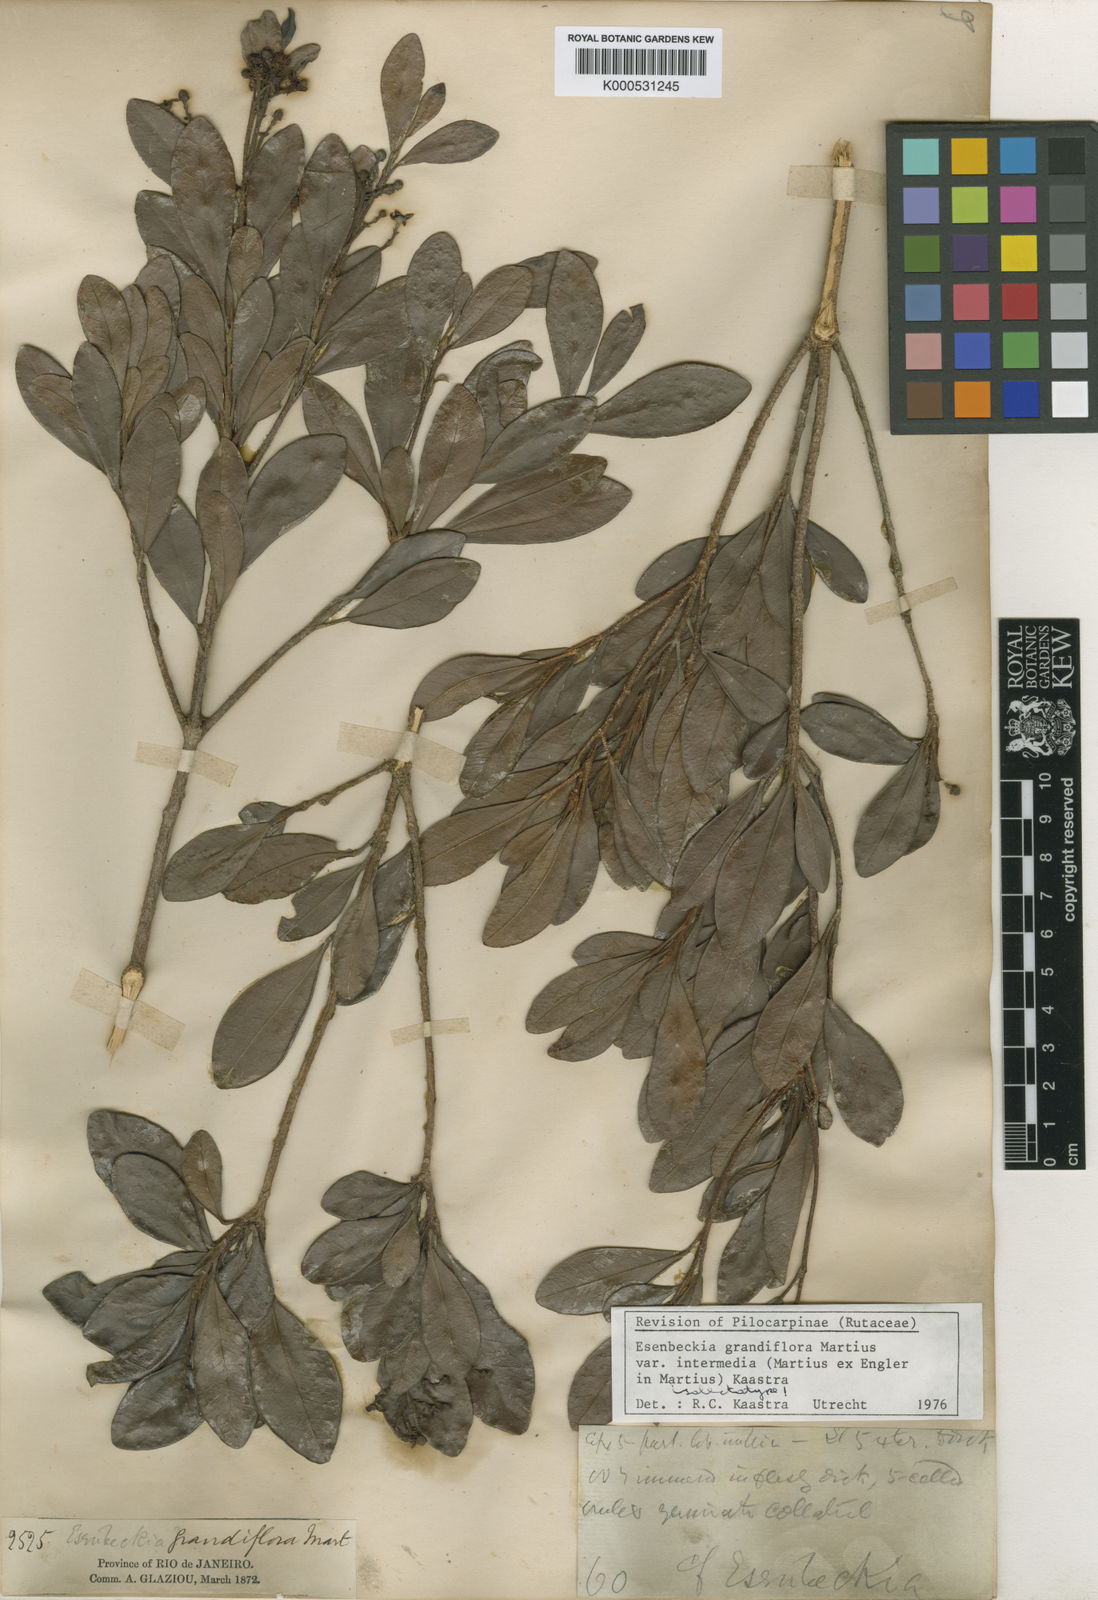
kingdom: Plantae
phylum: Tracheophyta
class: Magnoliopsida
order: Sapindales
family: Rutaceae
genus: Esenbeckia
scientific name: Esenbeckia grandiflora
